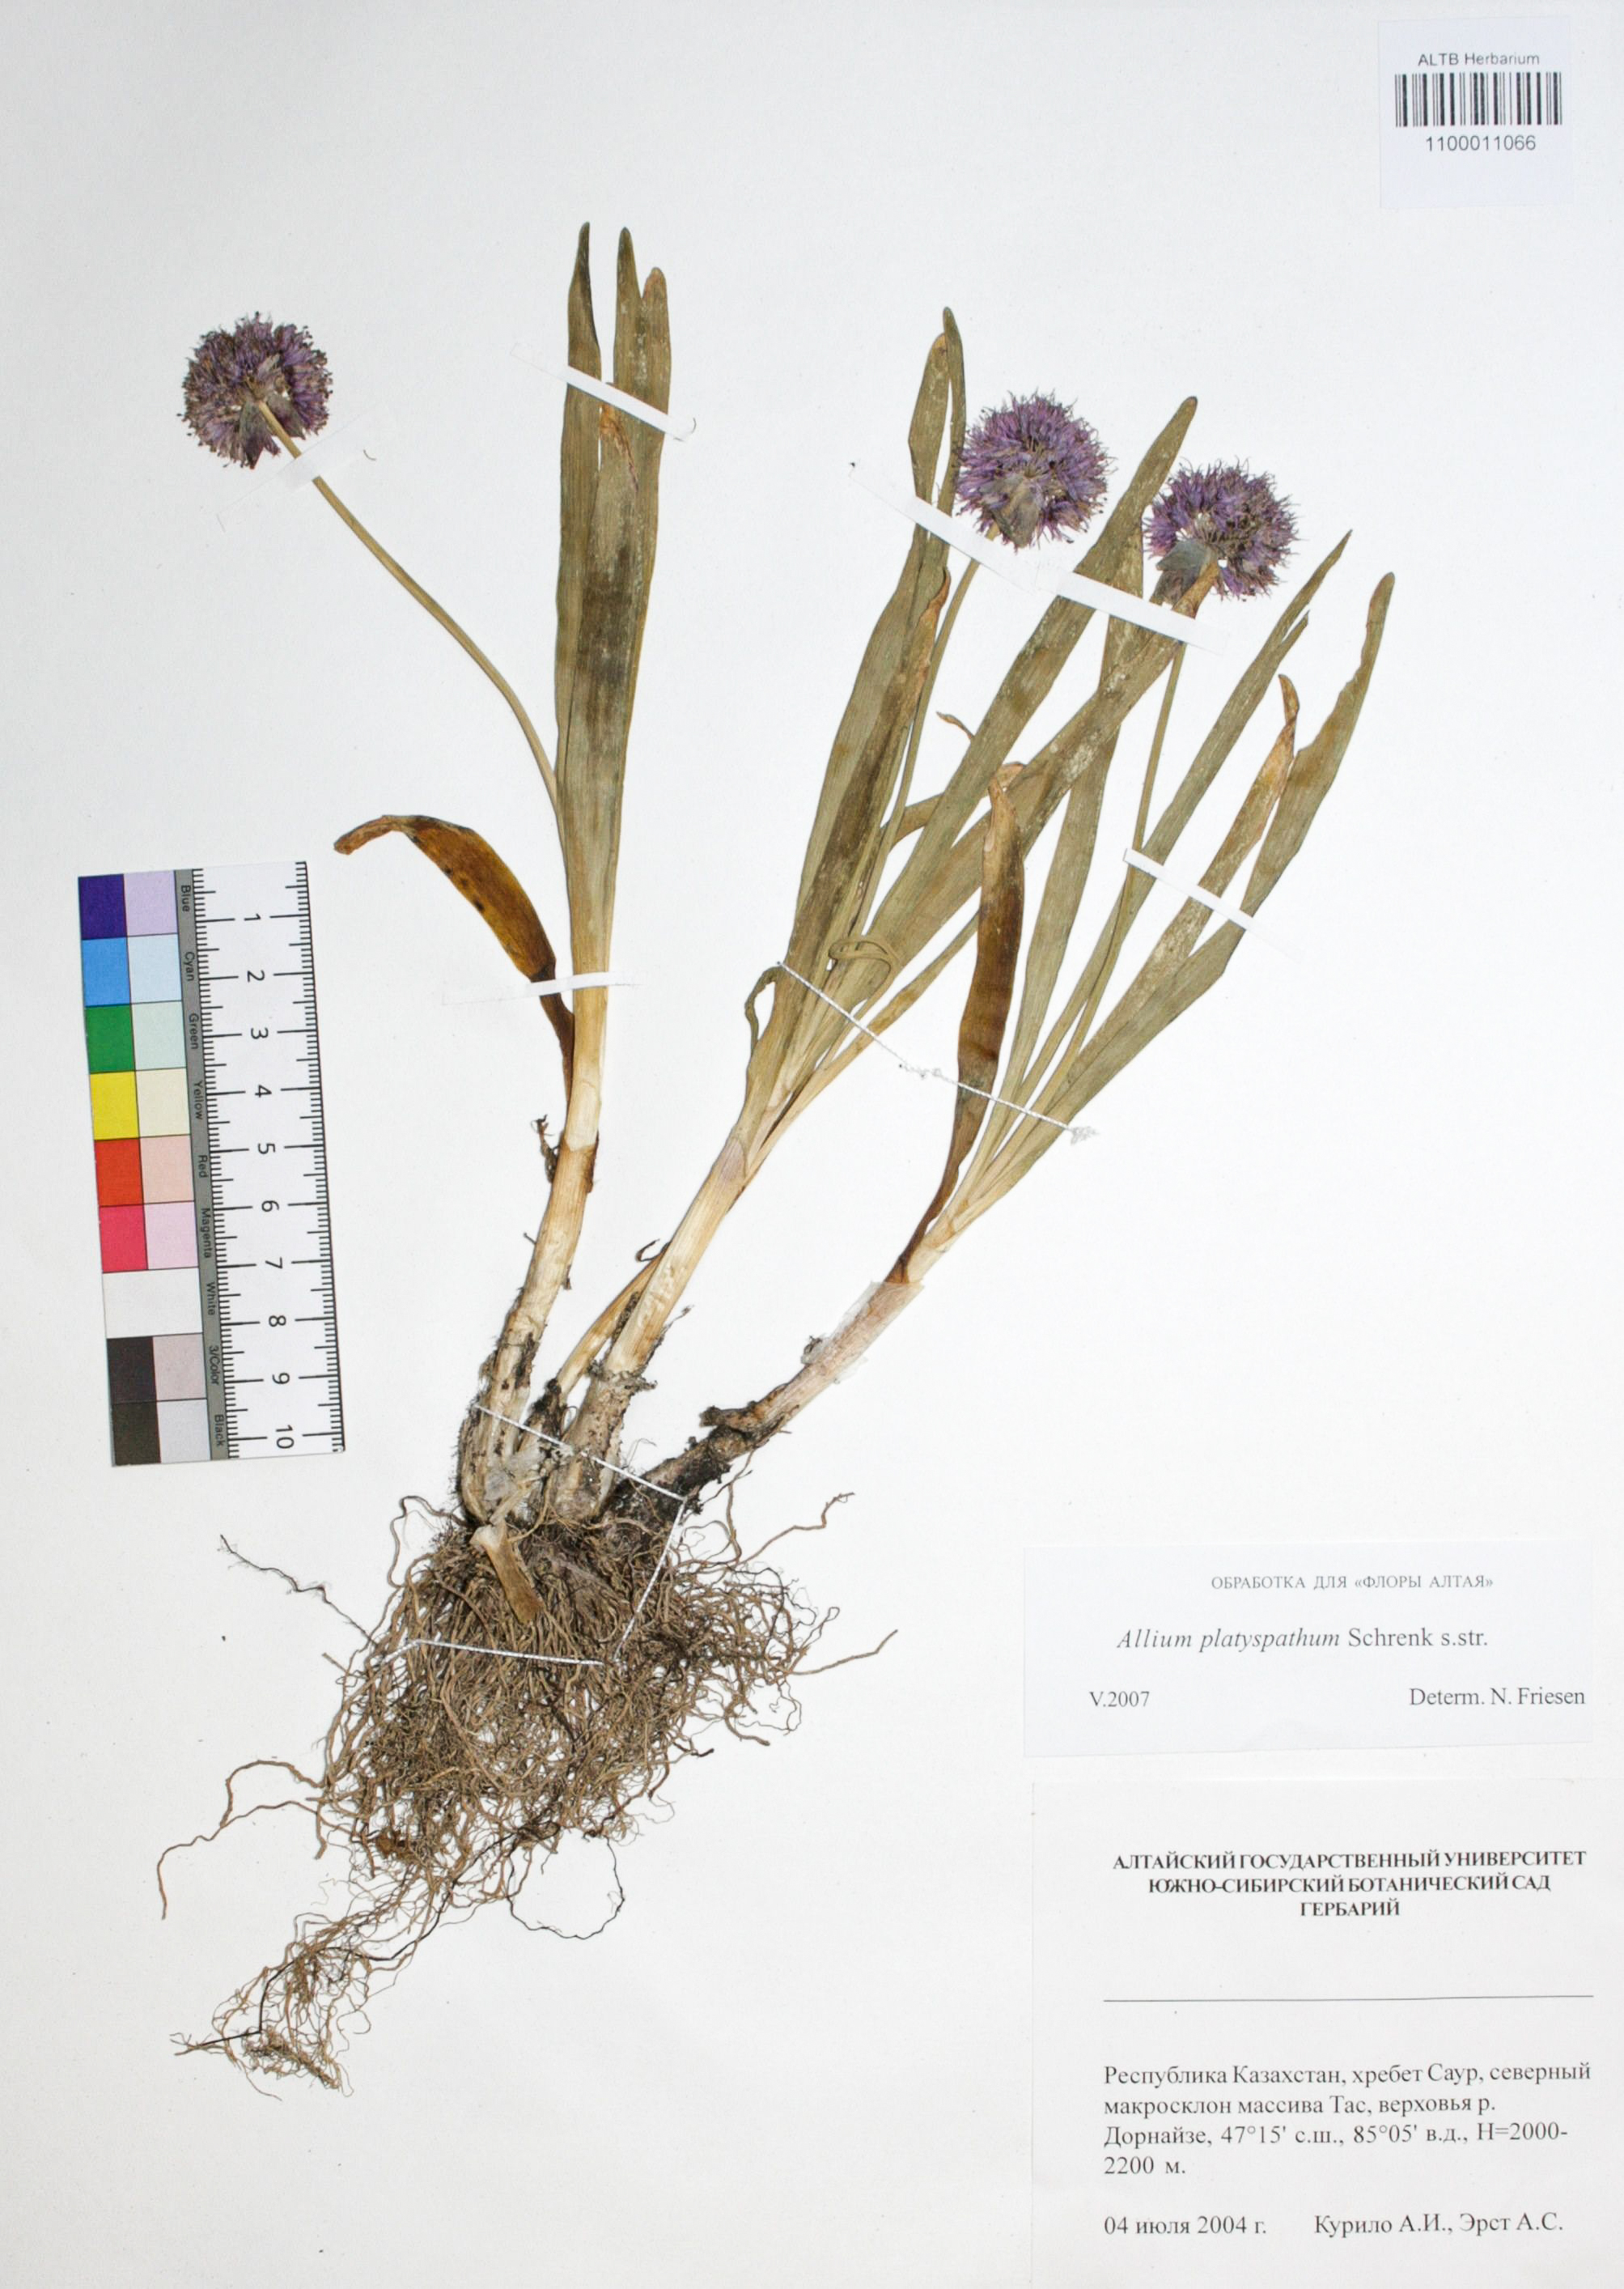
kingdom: Plantae
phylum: Tracheophyta
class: Liliopsida
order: Asparagales
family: Amaryllidaceae
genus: Allium
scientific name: Allium platyspathum
